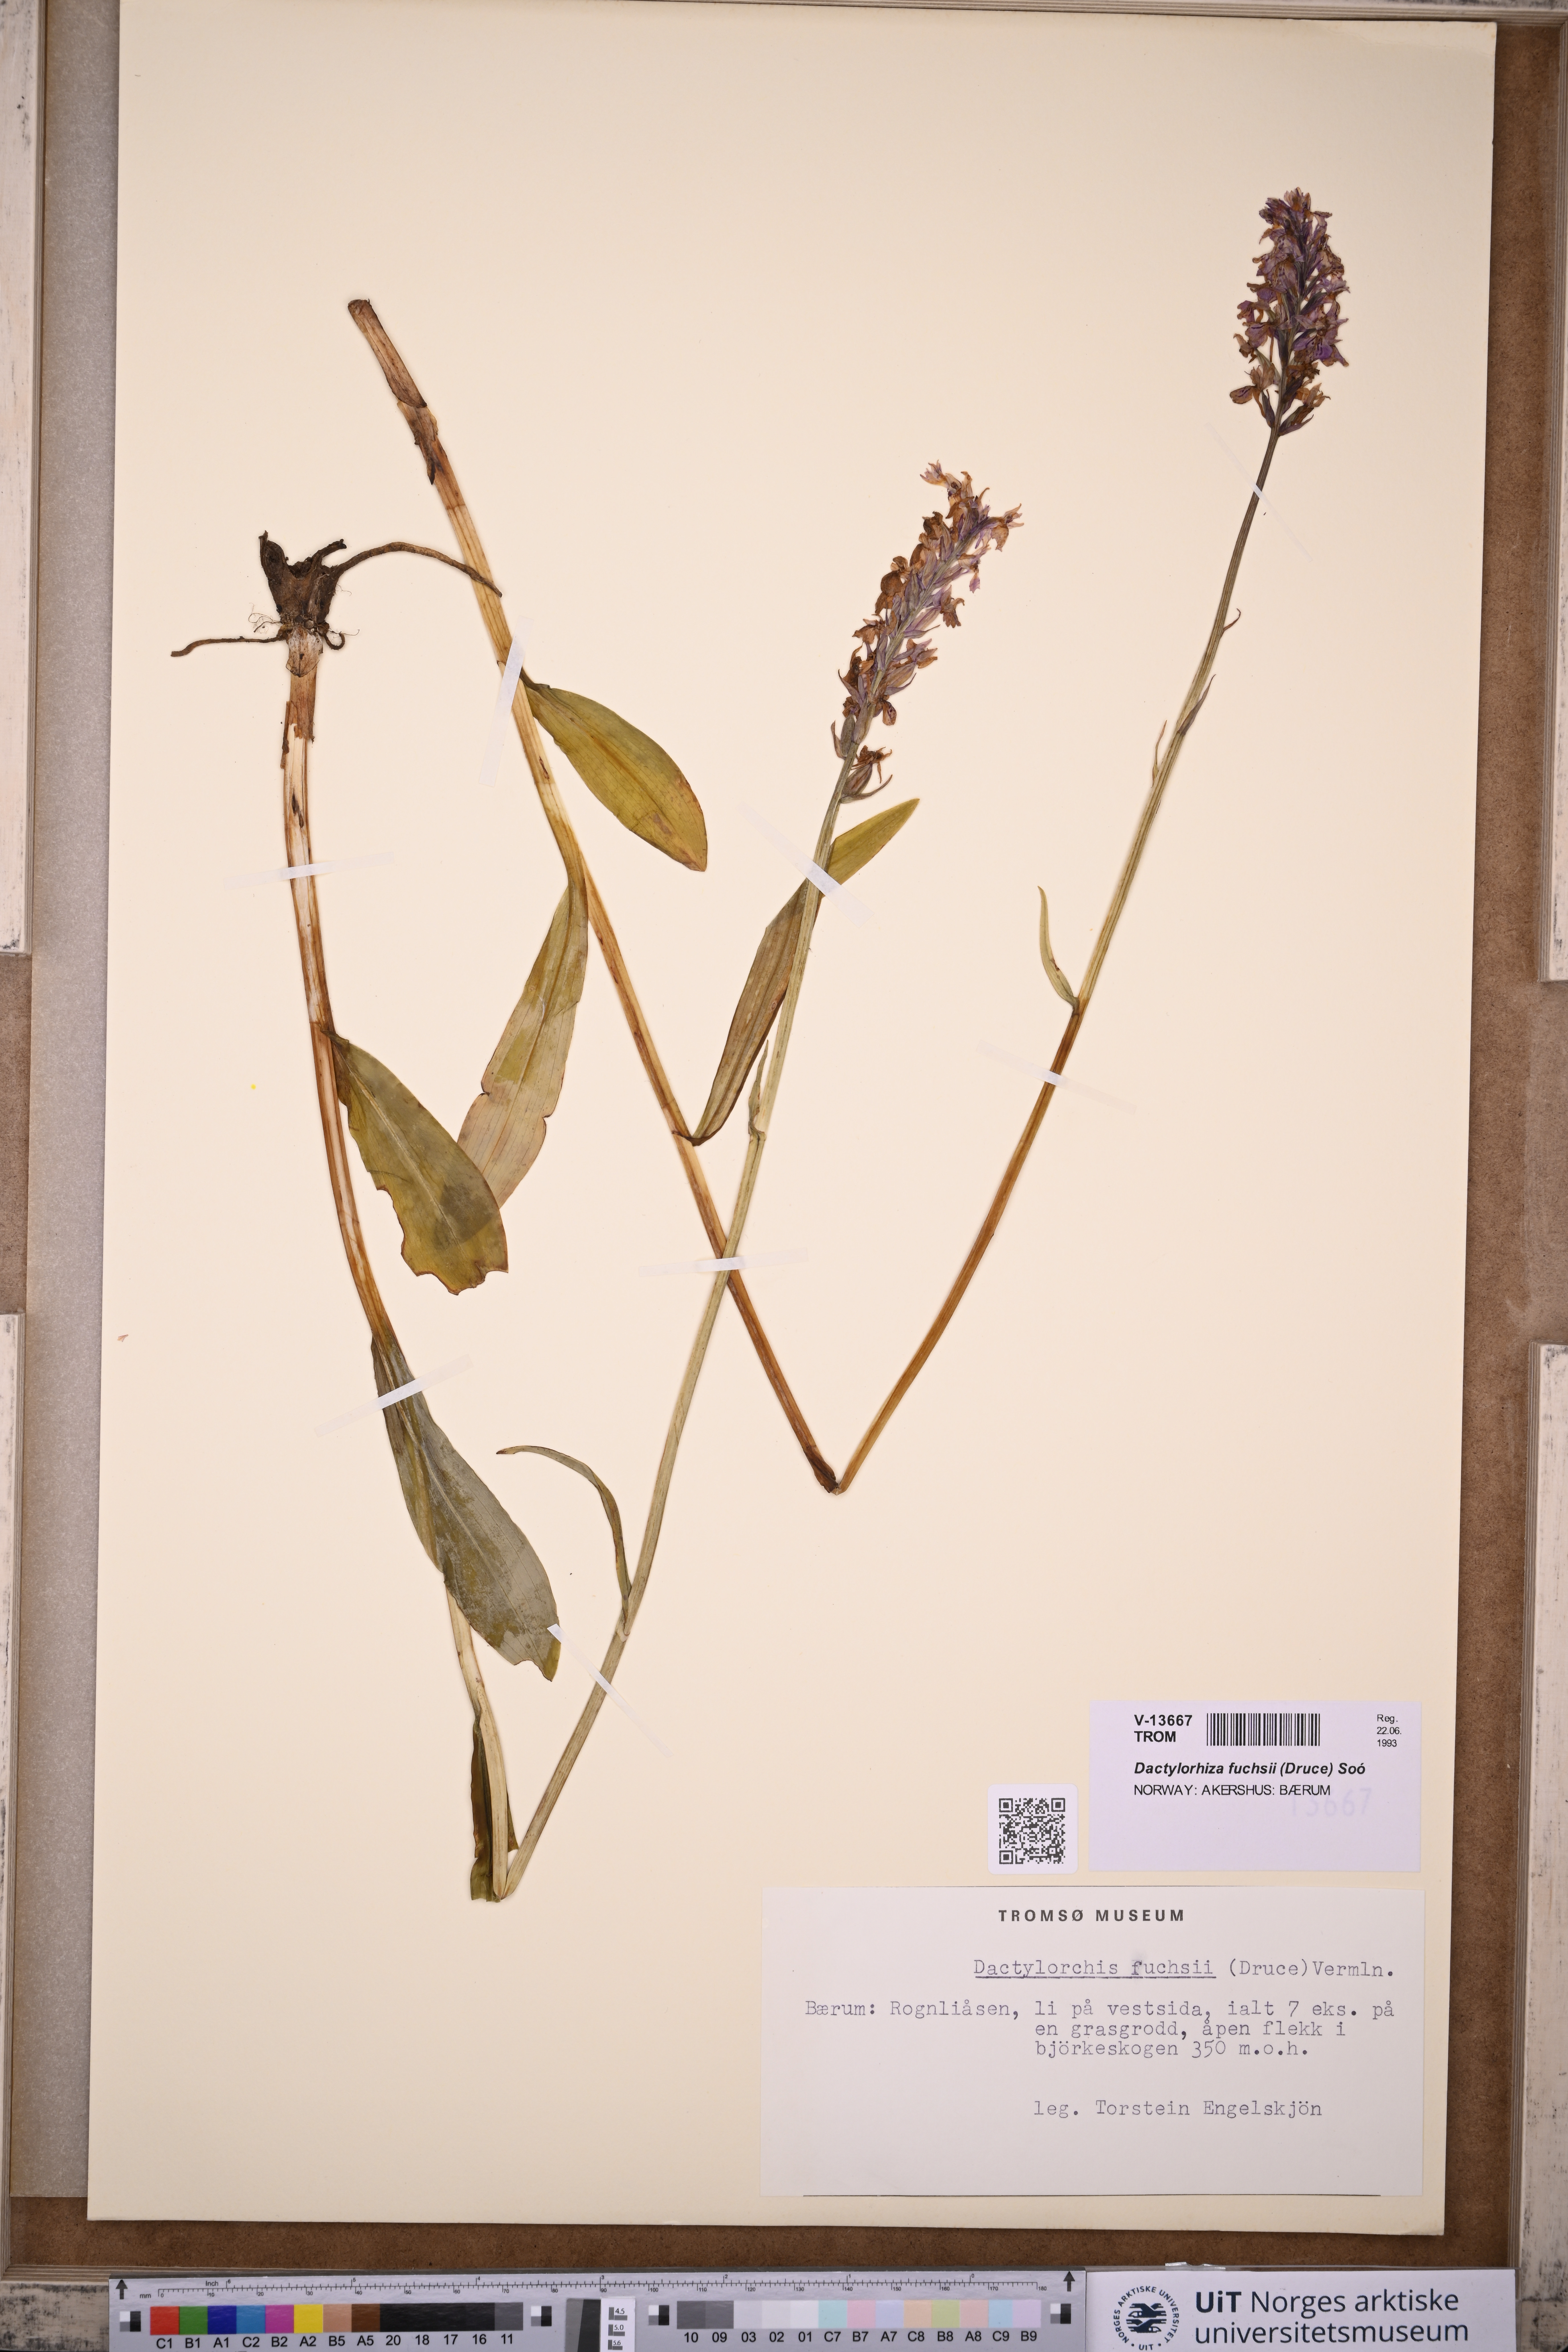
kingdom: Plantae
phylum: Tracheophyta
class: Liliopsida
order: Asparagales
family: Orchidaceae
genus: Dactylorhiza
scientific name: Dactylorhiza maculata
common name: Heath spotted-orchid
